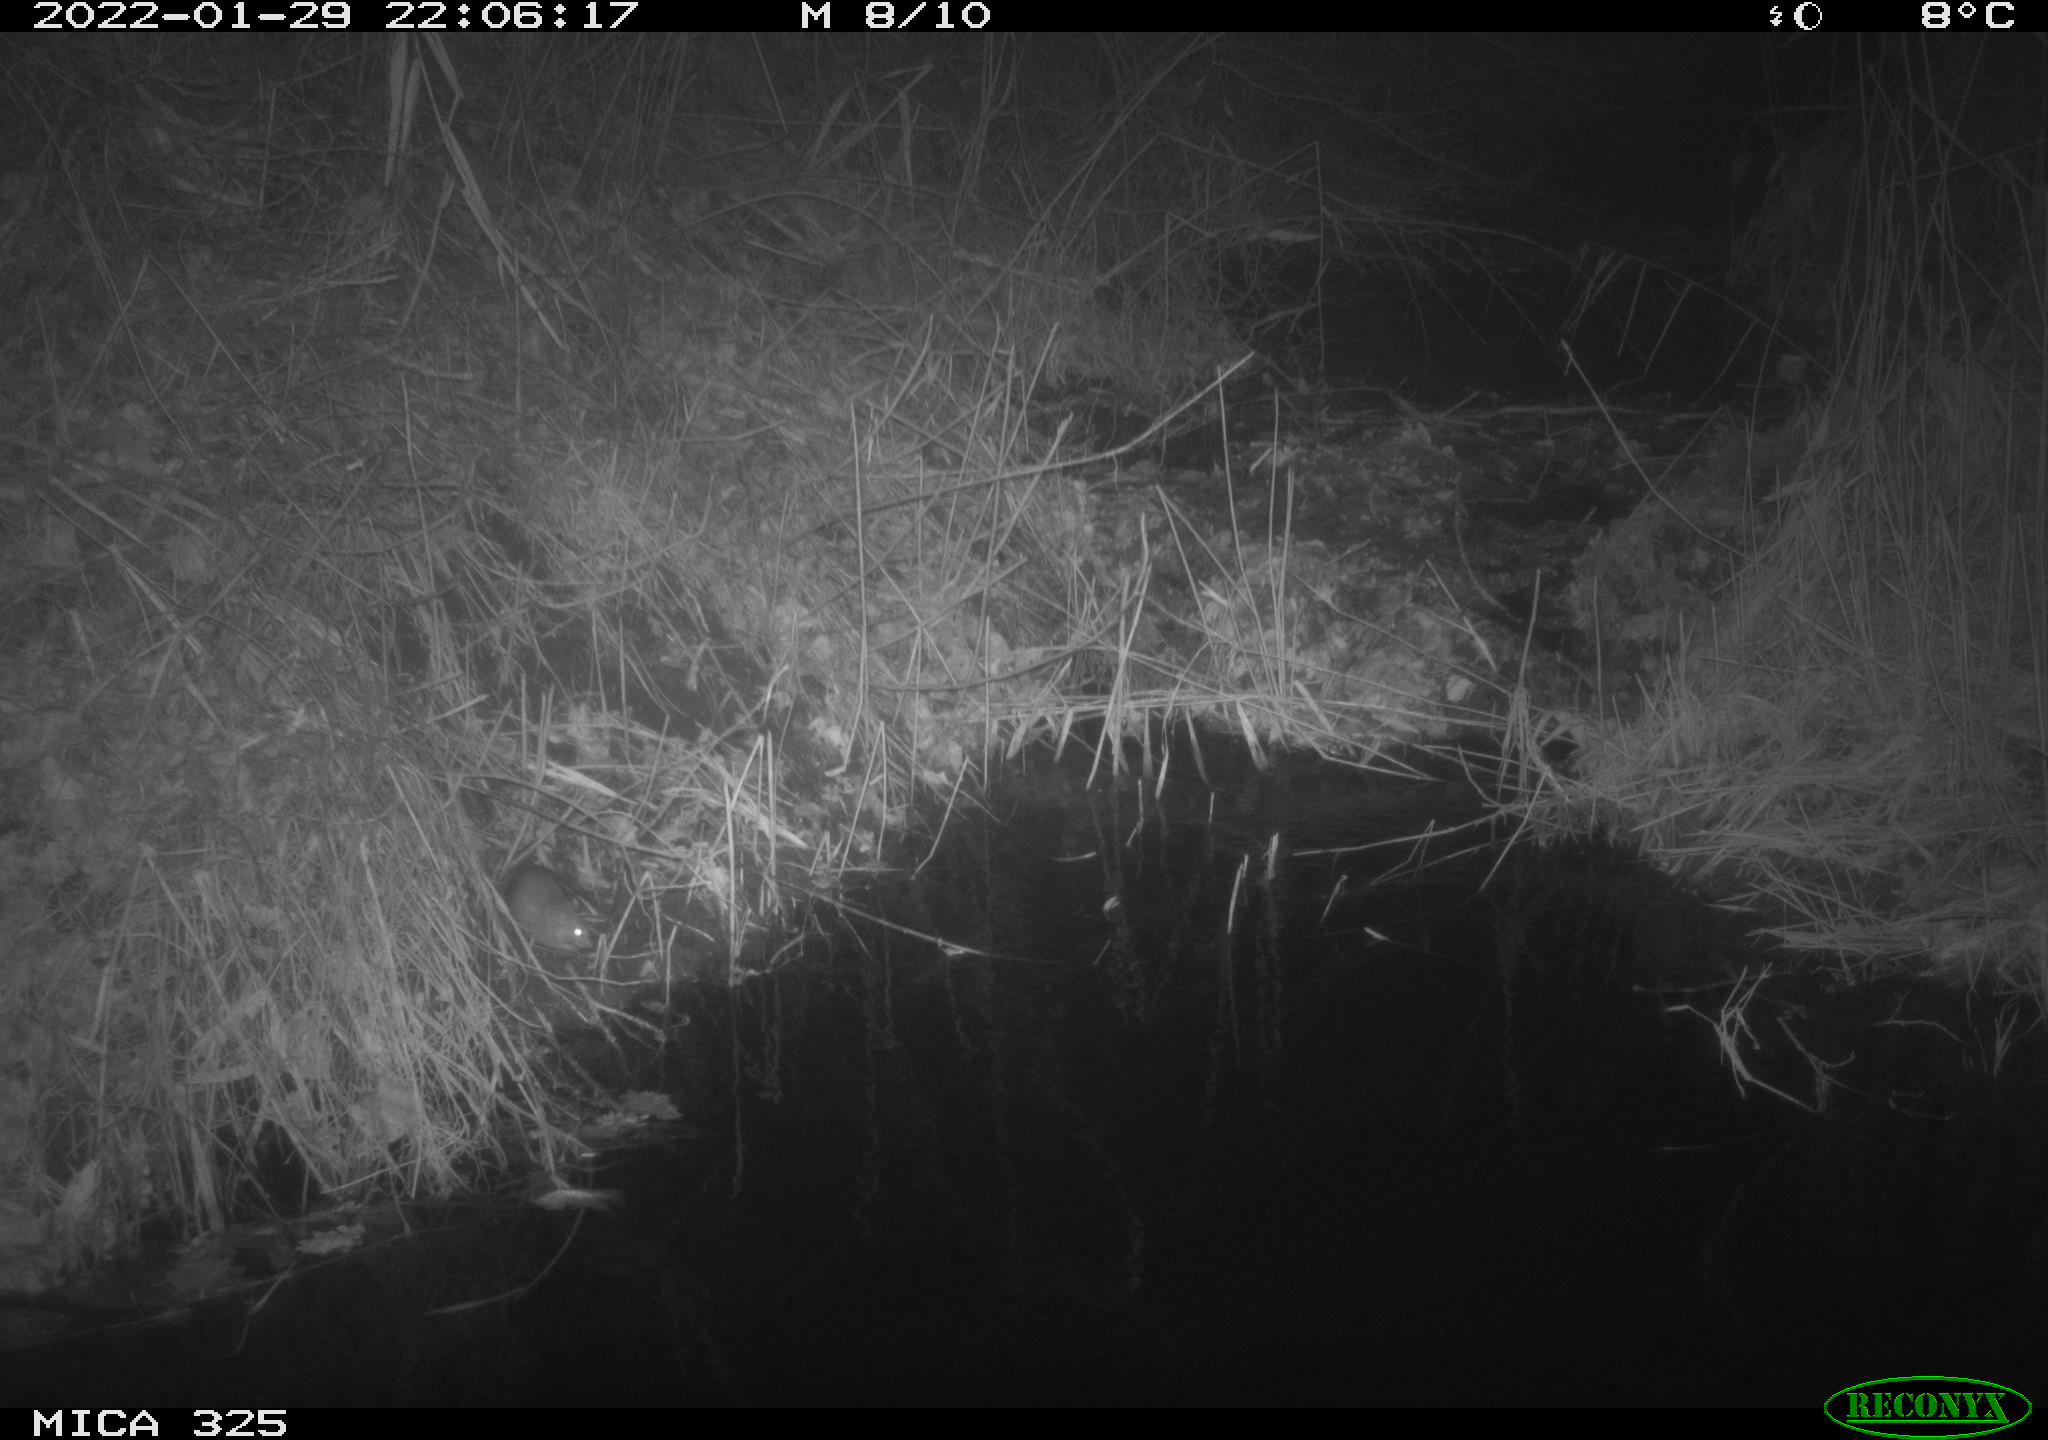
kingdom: Animalia
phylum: Chordata
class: Mammalia
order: Rodentia
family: Muridae
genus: Rattus
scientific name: Rattus norvegicus
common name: Brown rat
